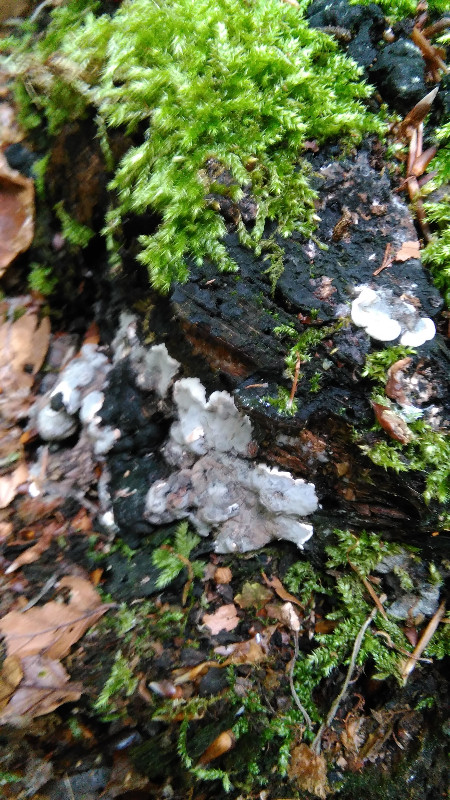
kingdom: Fungi
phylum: Ascomycota
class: Sordariomycetes
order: Xylariales
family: Xylariaceae
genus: Kretzschmaria
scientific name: Kretzschmaria deusta
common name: stor kulsvamp
